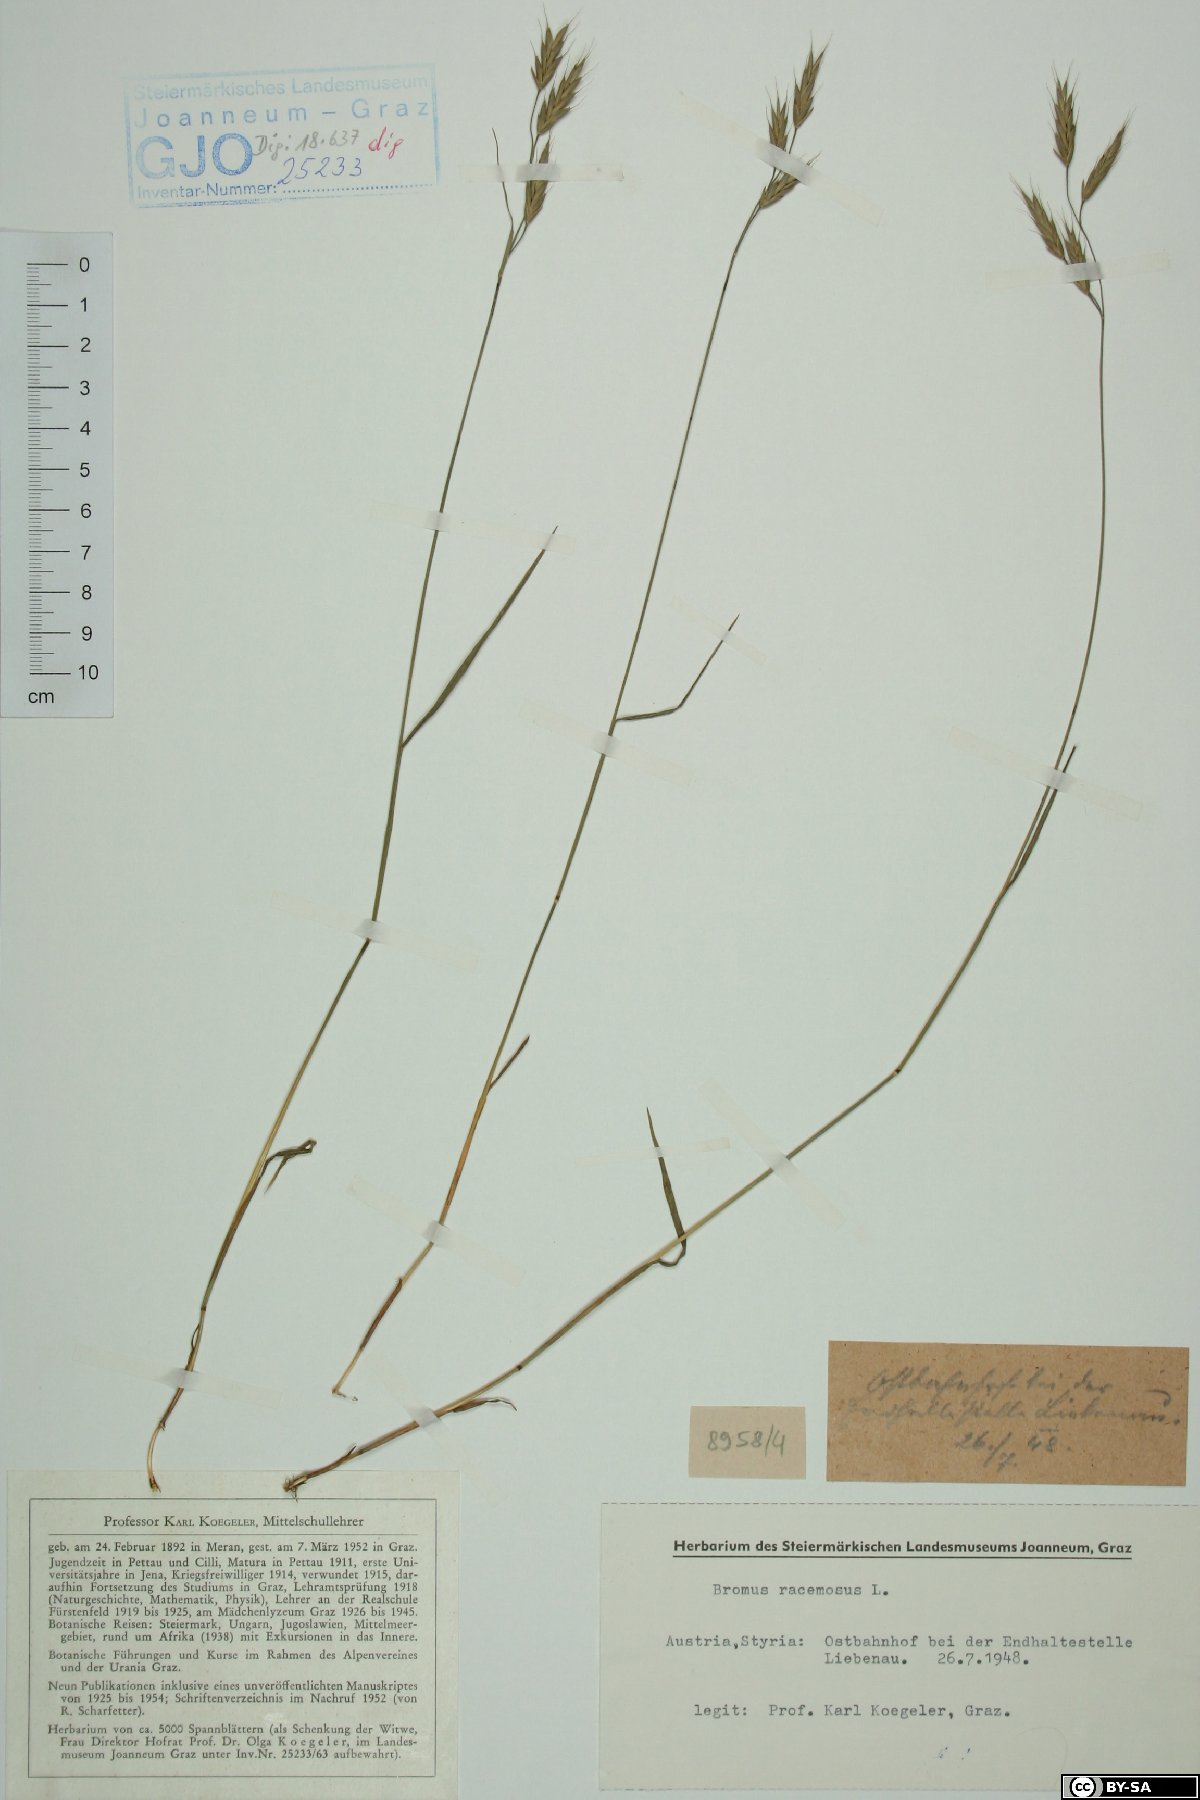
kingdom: Plantae
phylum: Tracheophyta
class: Liliopsida
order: Poales
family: Poaceae
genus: Bromus
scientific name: Bromus racemosus
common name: Bald brome
